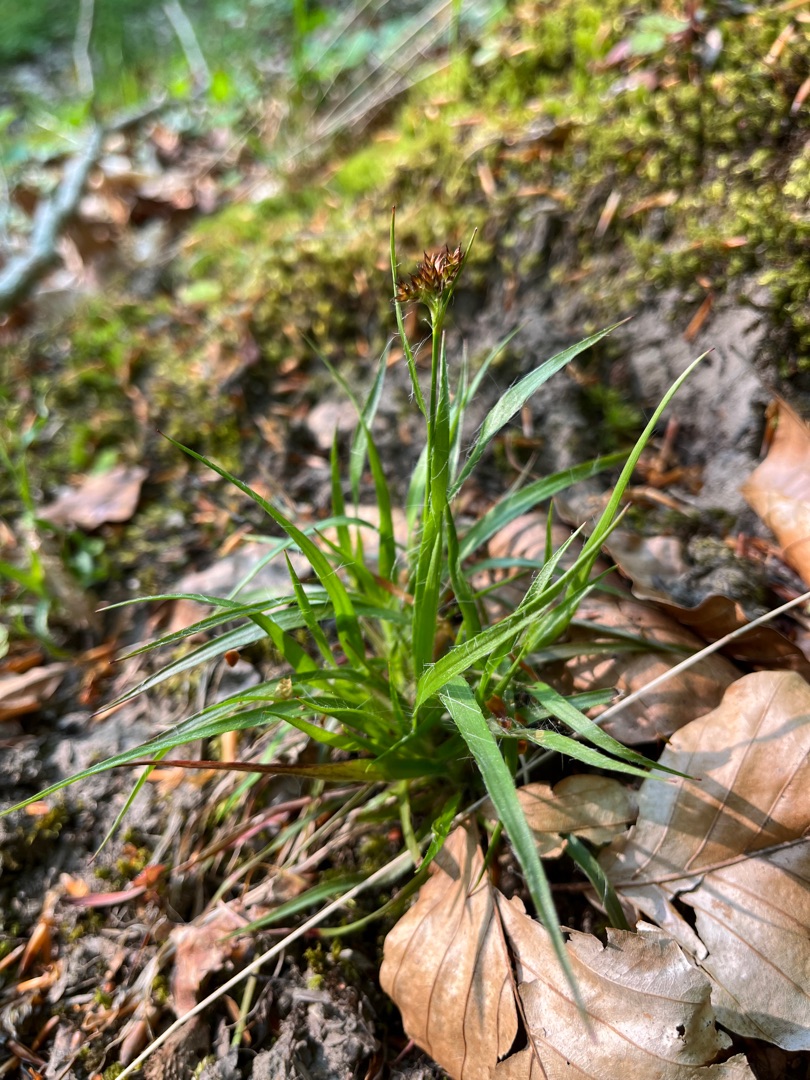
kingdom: Plantae
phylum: Tracheophyta
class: Liliopsida
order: Poales
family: Juncaceae
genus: Luzula
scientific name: Luzula multiflora
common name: Mangeblomstret frytle
